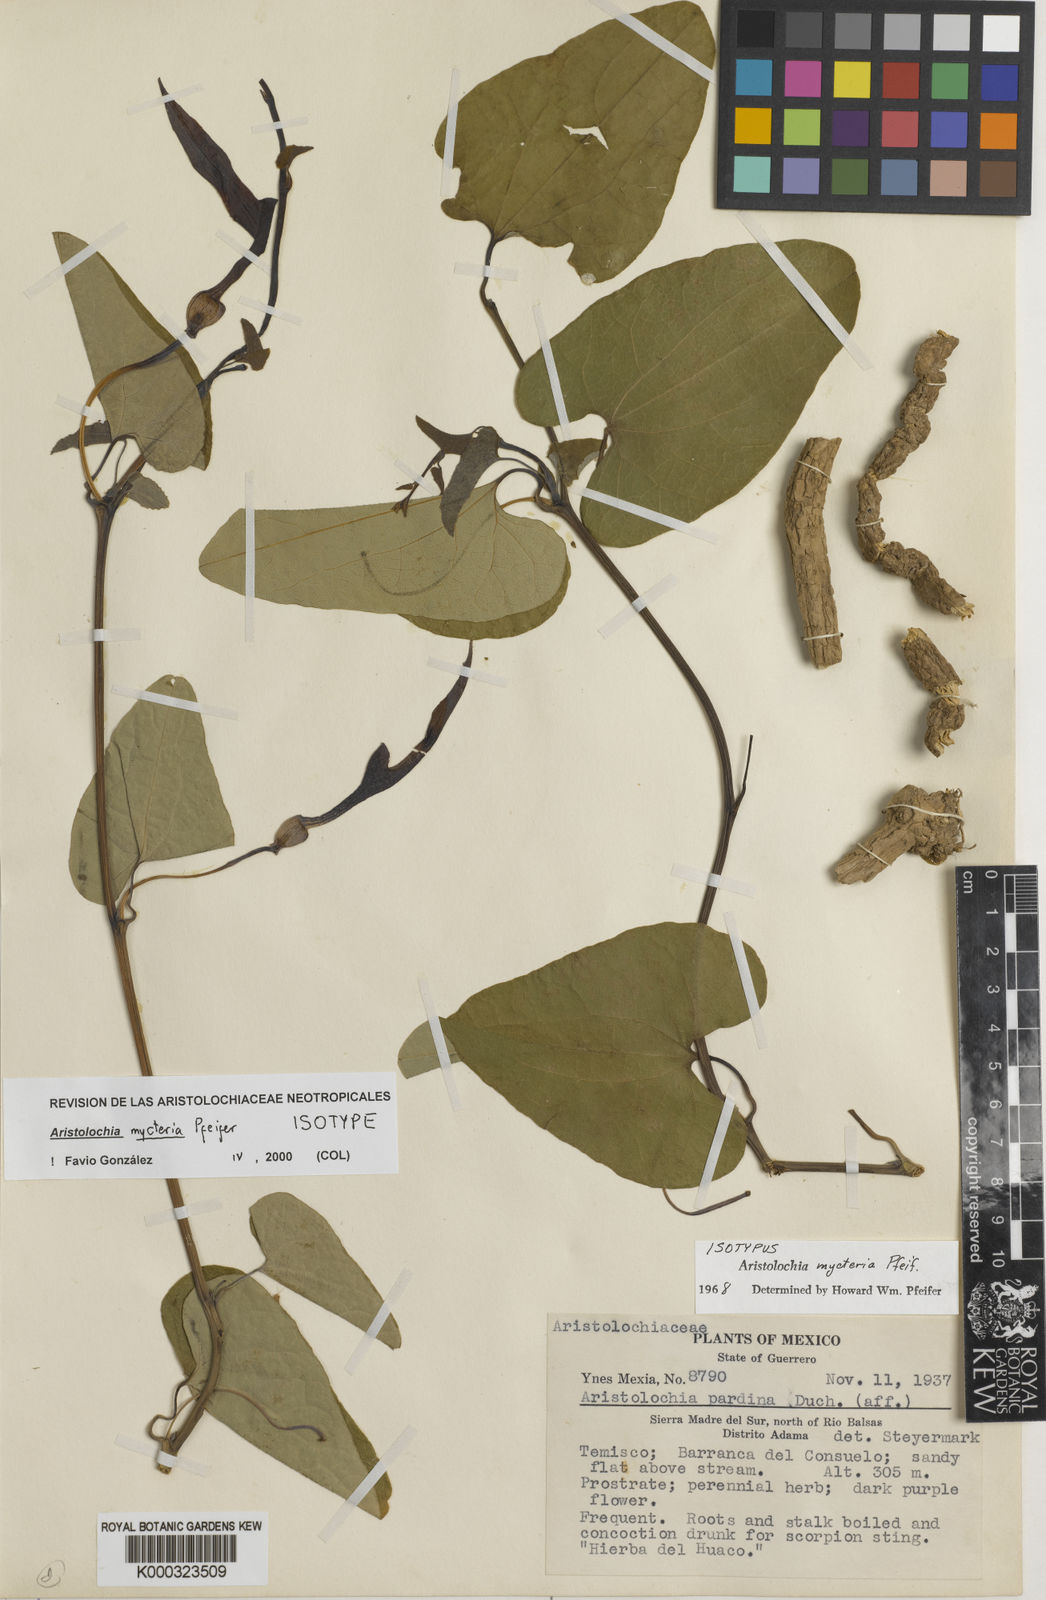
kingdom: Plantae
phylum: Tracheophyta
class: Magnoliopsida
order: Piperales
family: Aristolochiaceae
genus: Aristolochia
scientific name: Aristolochia mycteria
